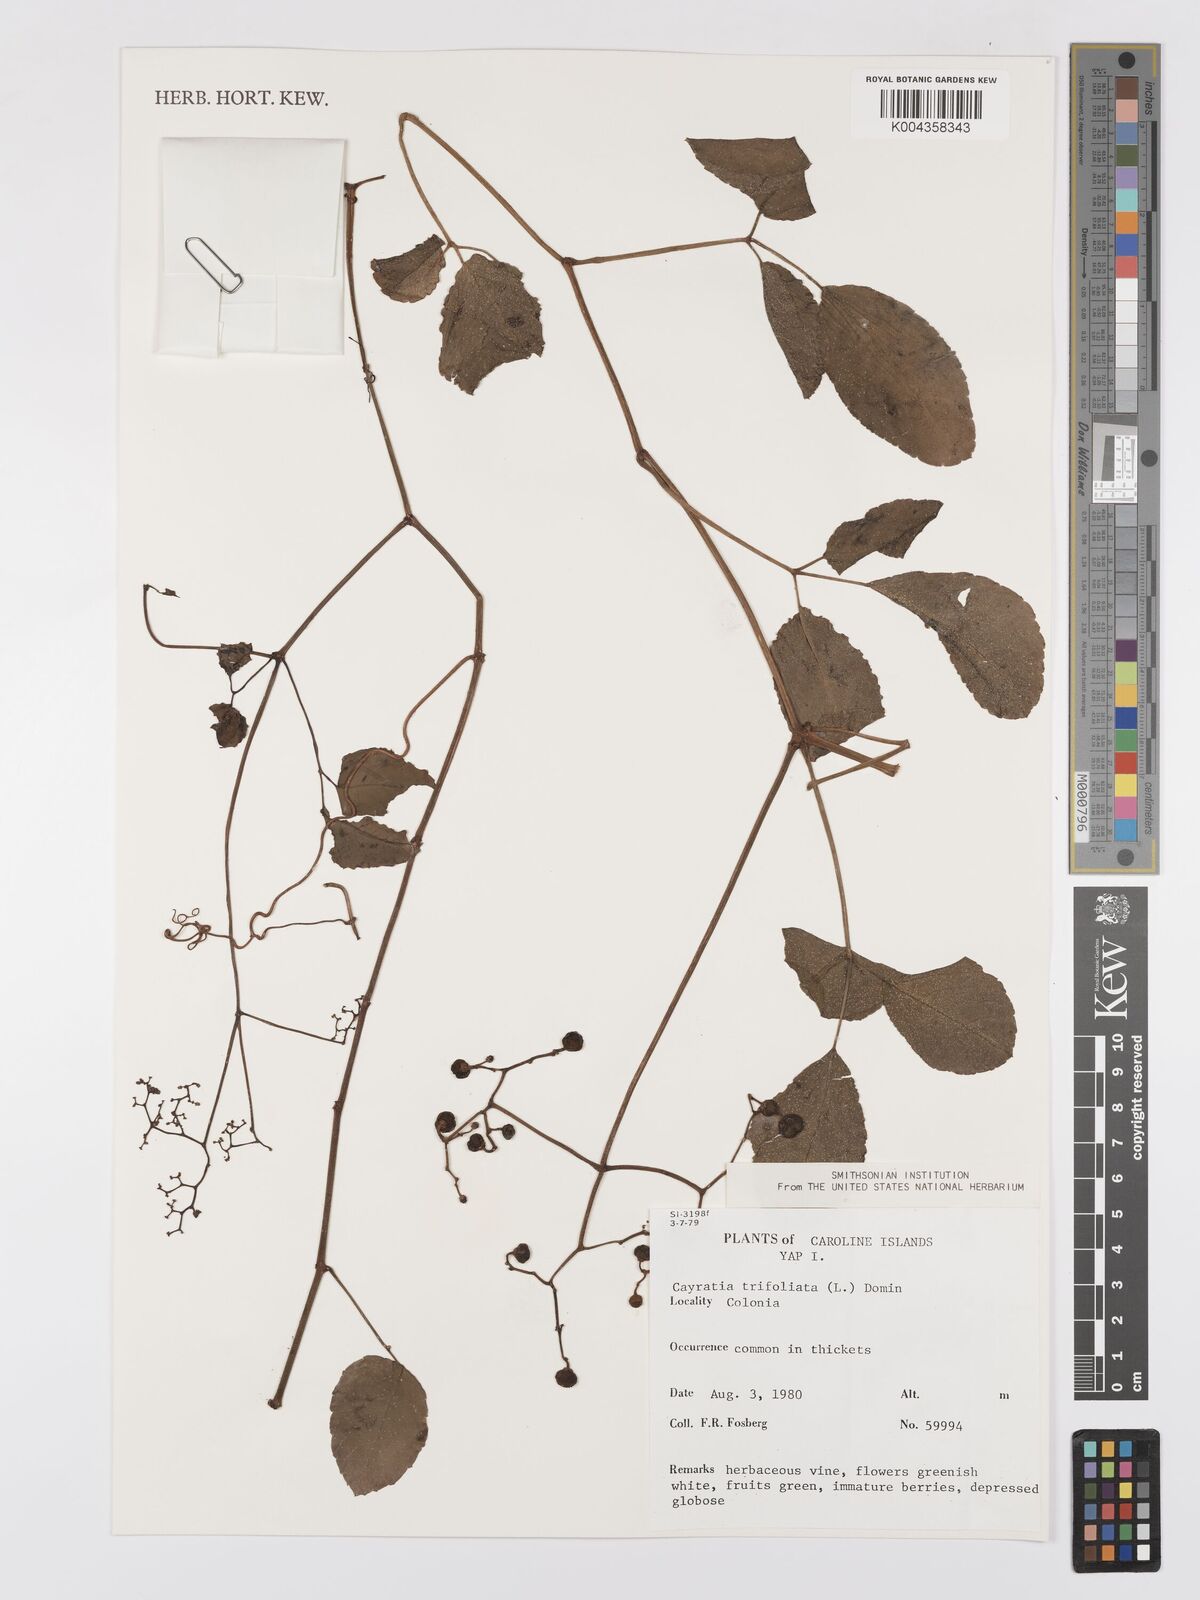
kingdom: Plantae
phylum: Tracheophyta
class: Magnoliopsida
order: Vitales
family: Vitaceae
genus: Cayratia
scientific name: Cayratia
